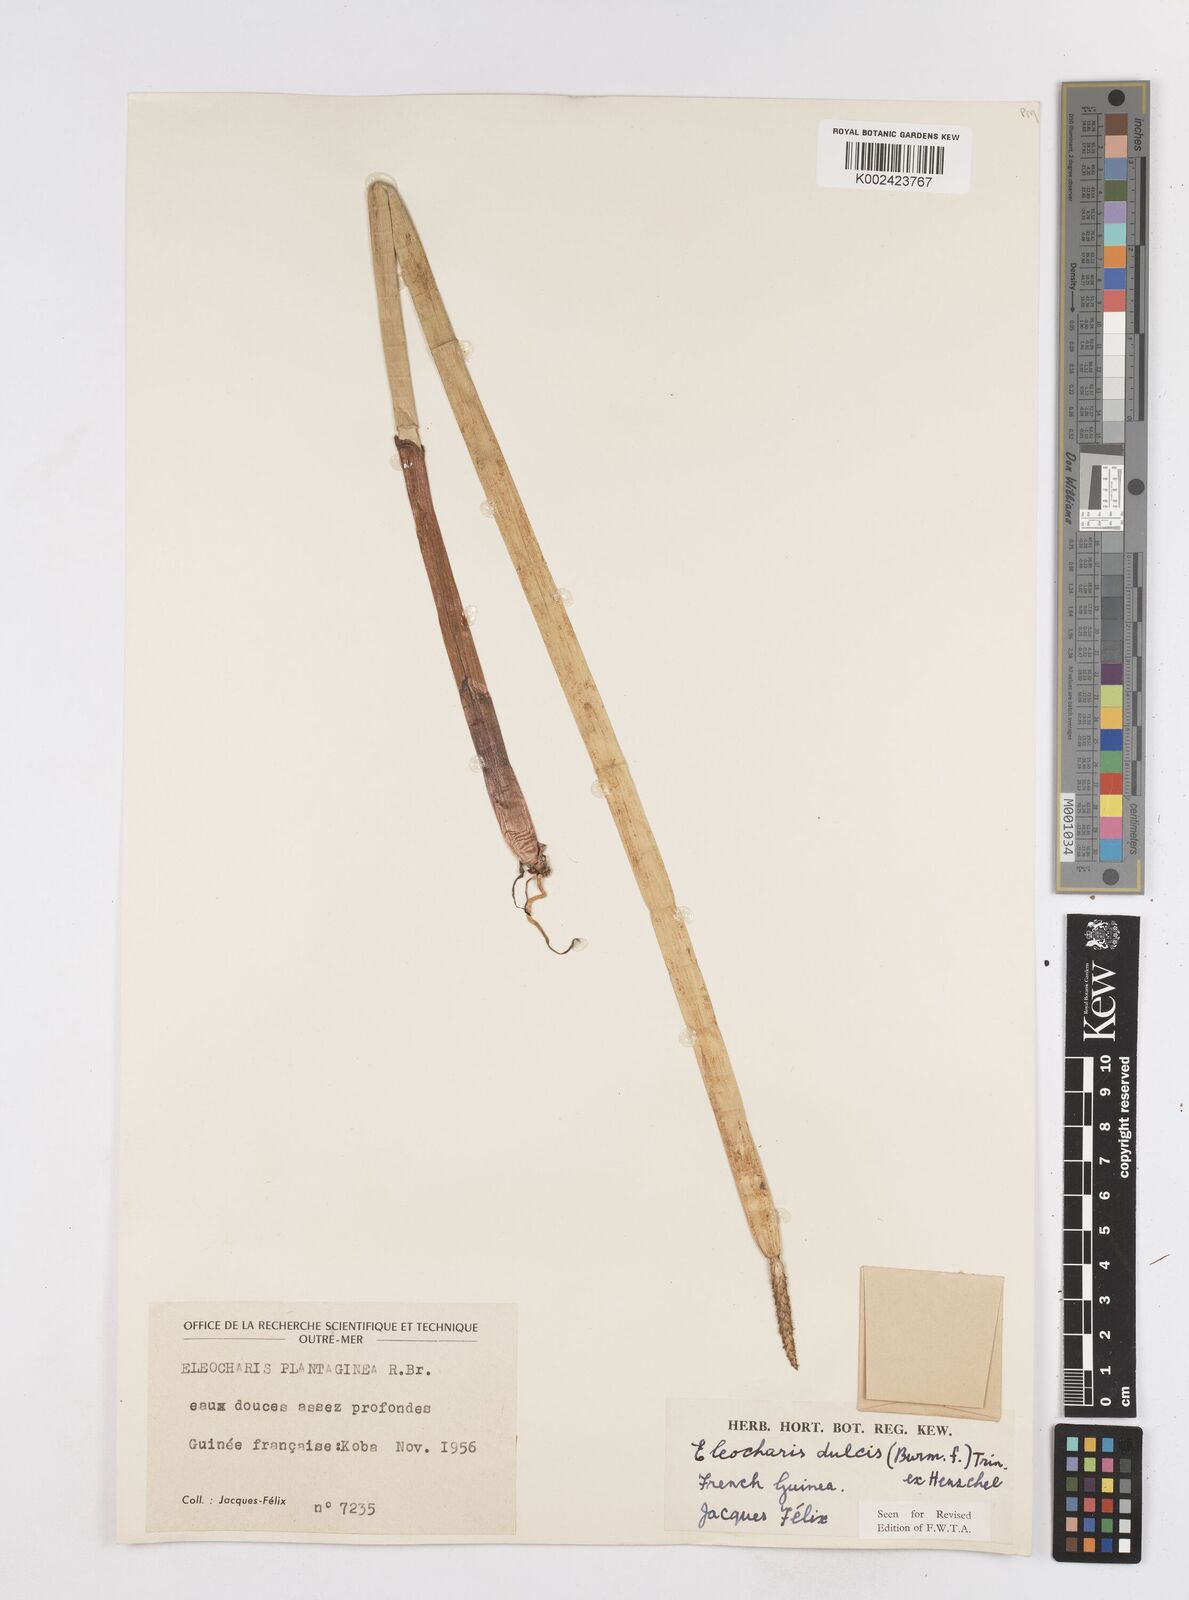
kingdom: Plantae
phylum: Tracheophyta
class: Liliopsida
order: Poales
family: Cyperaceae
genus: Eleocharis
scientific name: Eleocharis dulcis
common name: Chinese water chestnut
